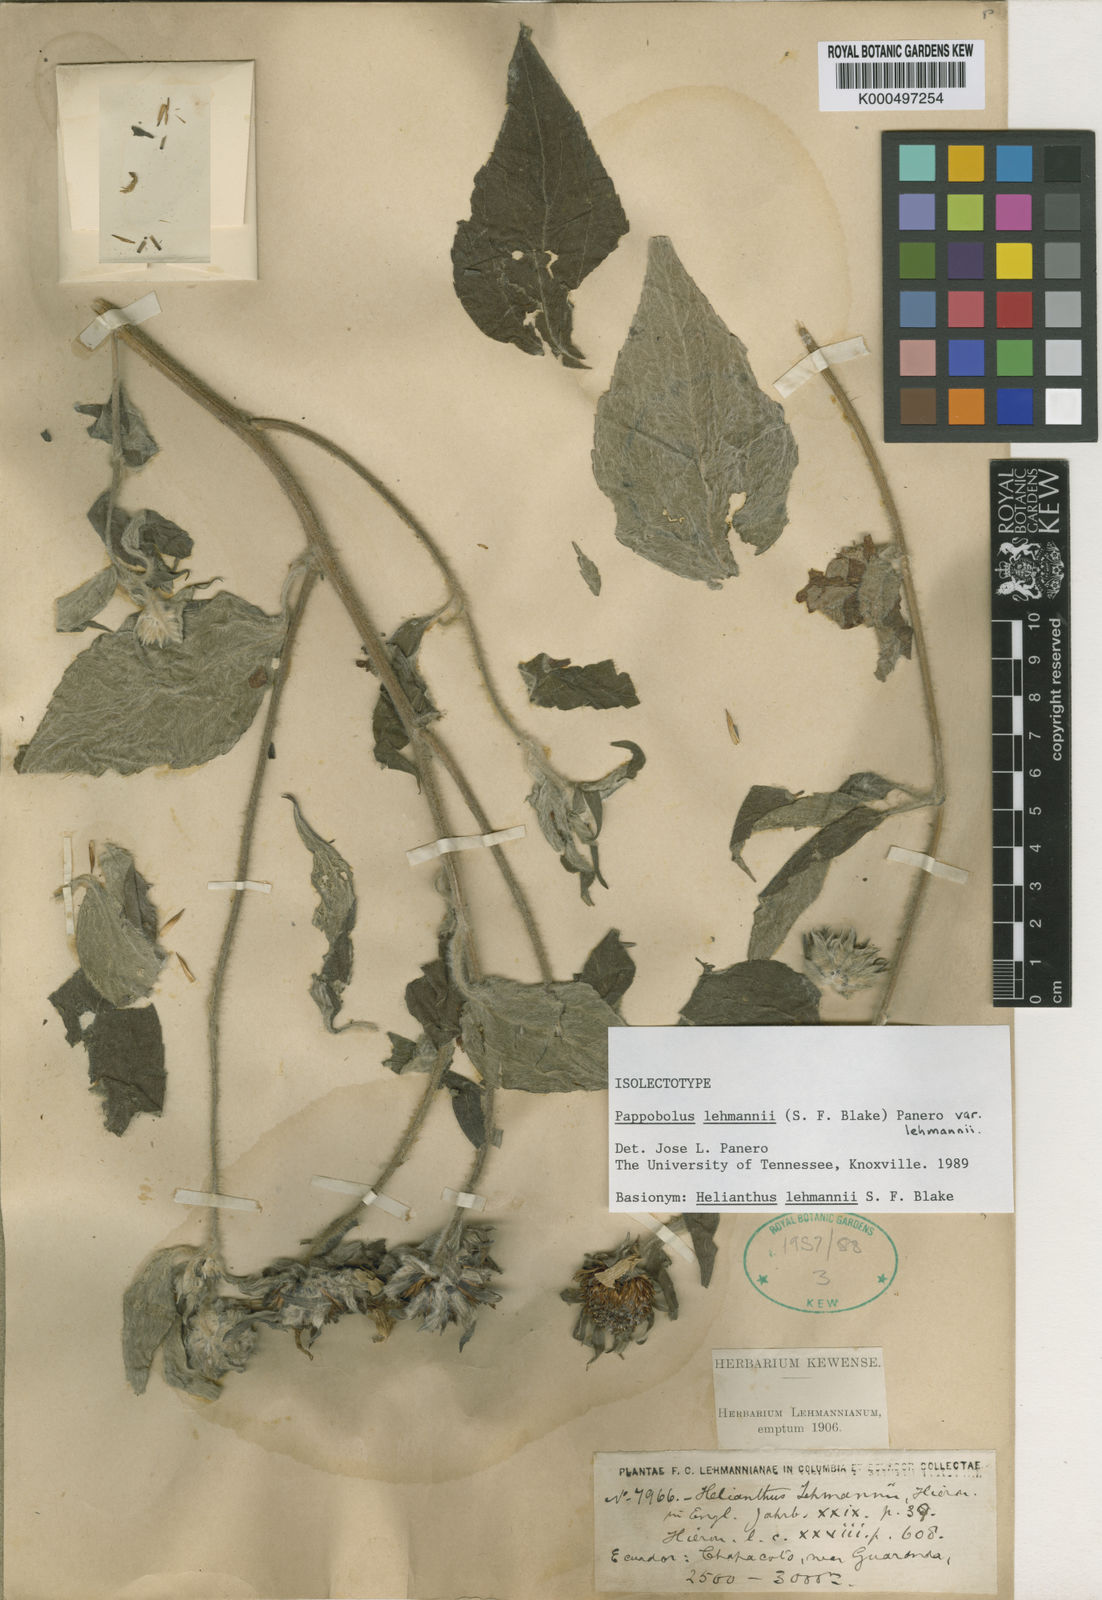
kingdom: Plantae
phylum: Tracheophyta
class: Magnoliopsida
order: Asterales
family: Asteraceae
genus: Pappobolus
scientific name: Pappobolus lehmannii
